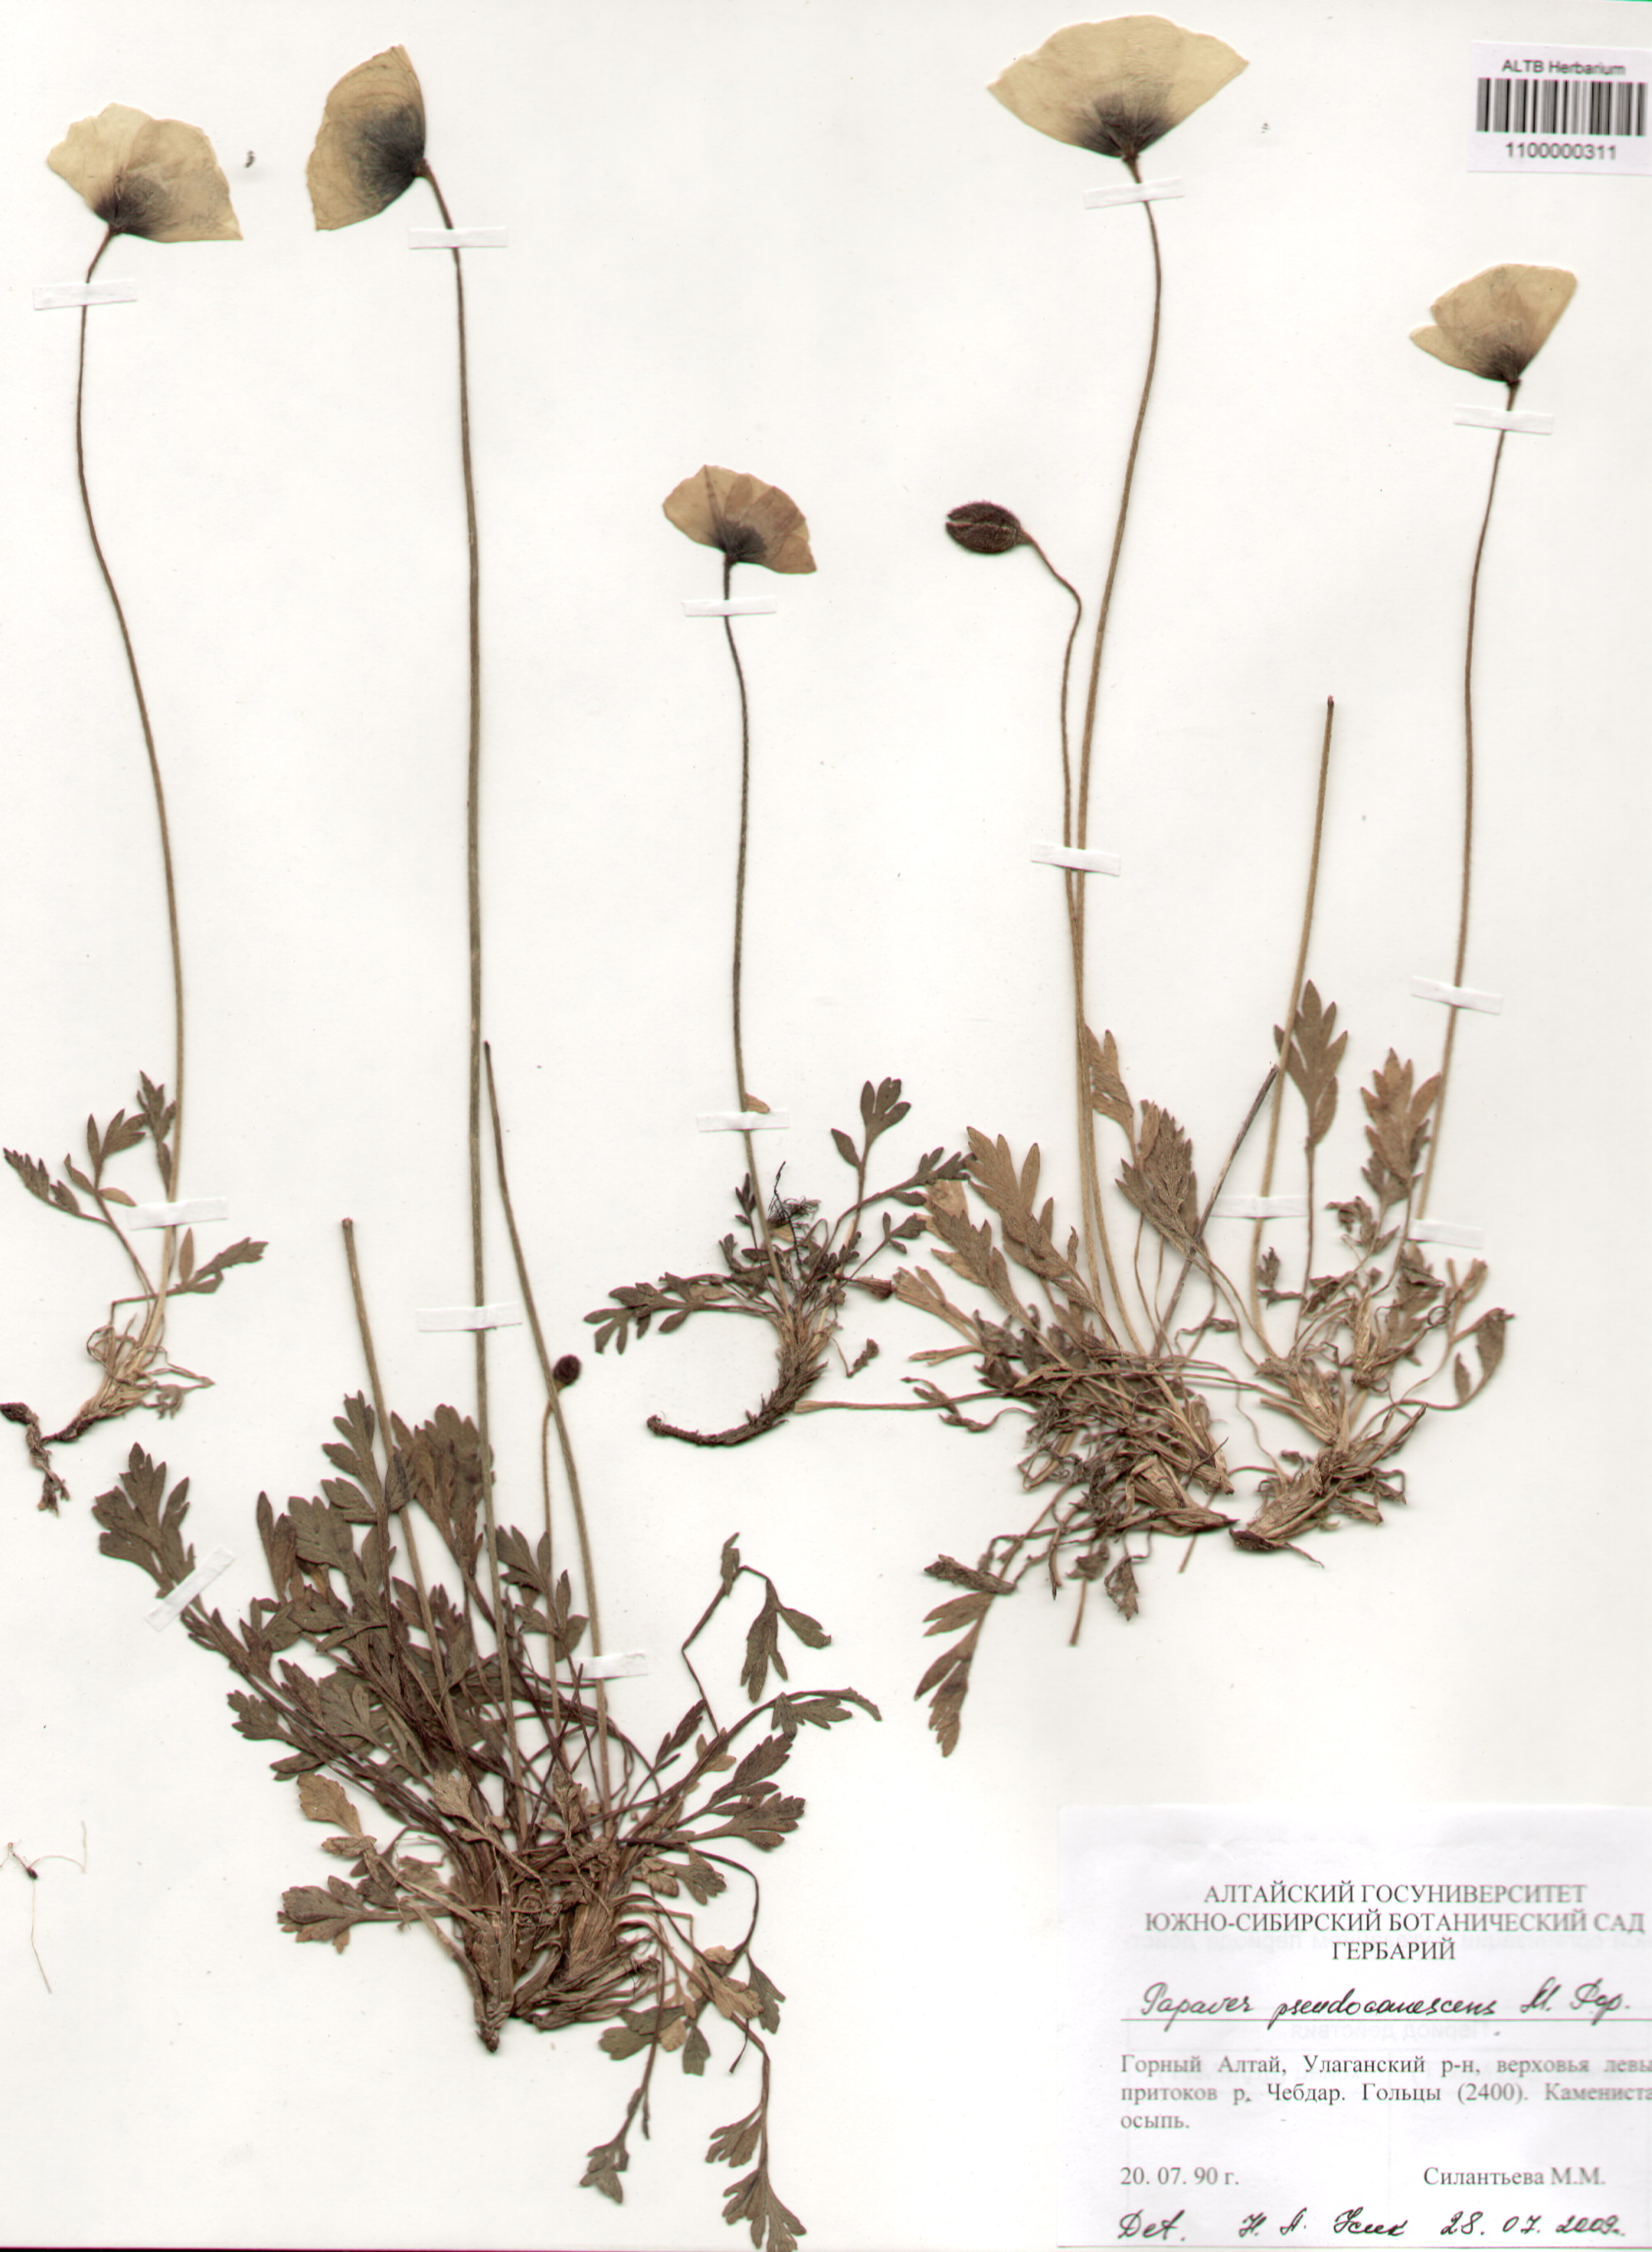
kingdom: Plantae
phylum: Tracheophyta
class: Magnoliopsida
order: Ranunculales
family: Papaveraceae
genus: Papaver
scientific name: Papaver canescens
